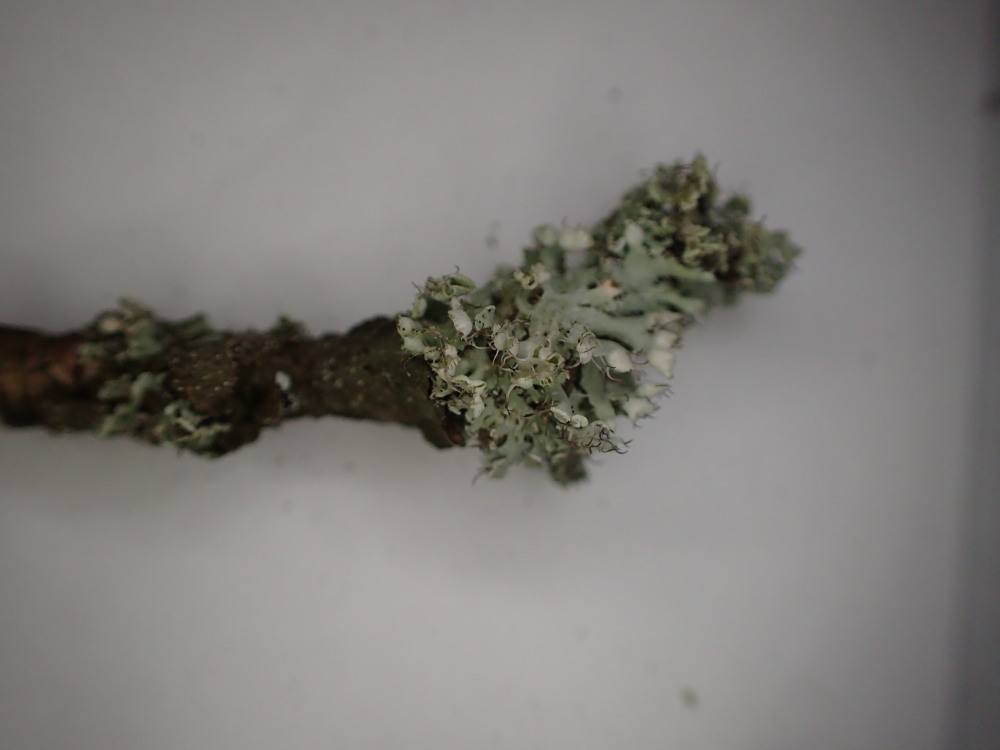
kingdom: Fungi
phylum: Ascomycota
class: Lecanoromycetes
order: Caliciales
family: Physciaceae
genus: Physcia
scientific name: Physcia adscendens
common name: hætte-rosetlav
